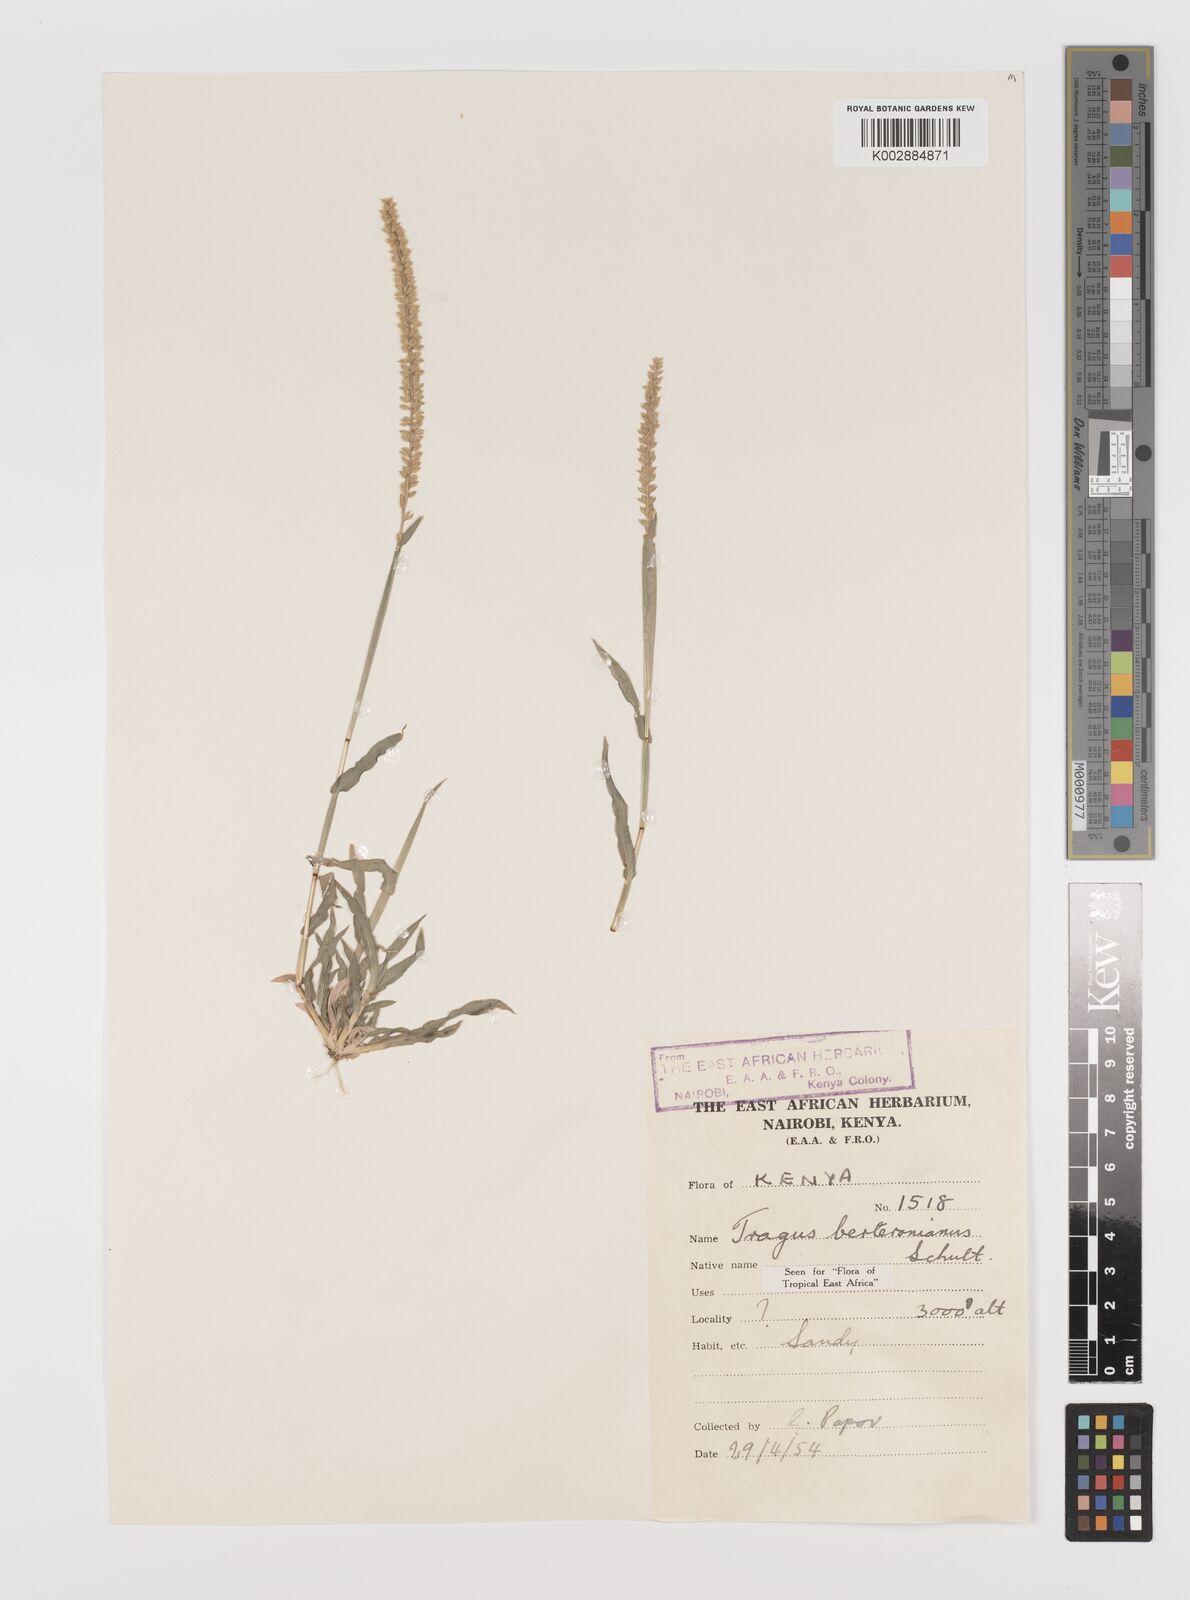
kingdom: Plantae
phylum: Tracheophyta
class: Liliopsida
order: Poales
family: Poaceae
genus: Tragus
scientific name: Tragus berteronianus
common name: African bur-grass
